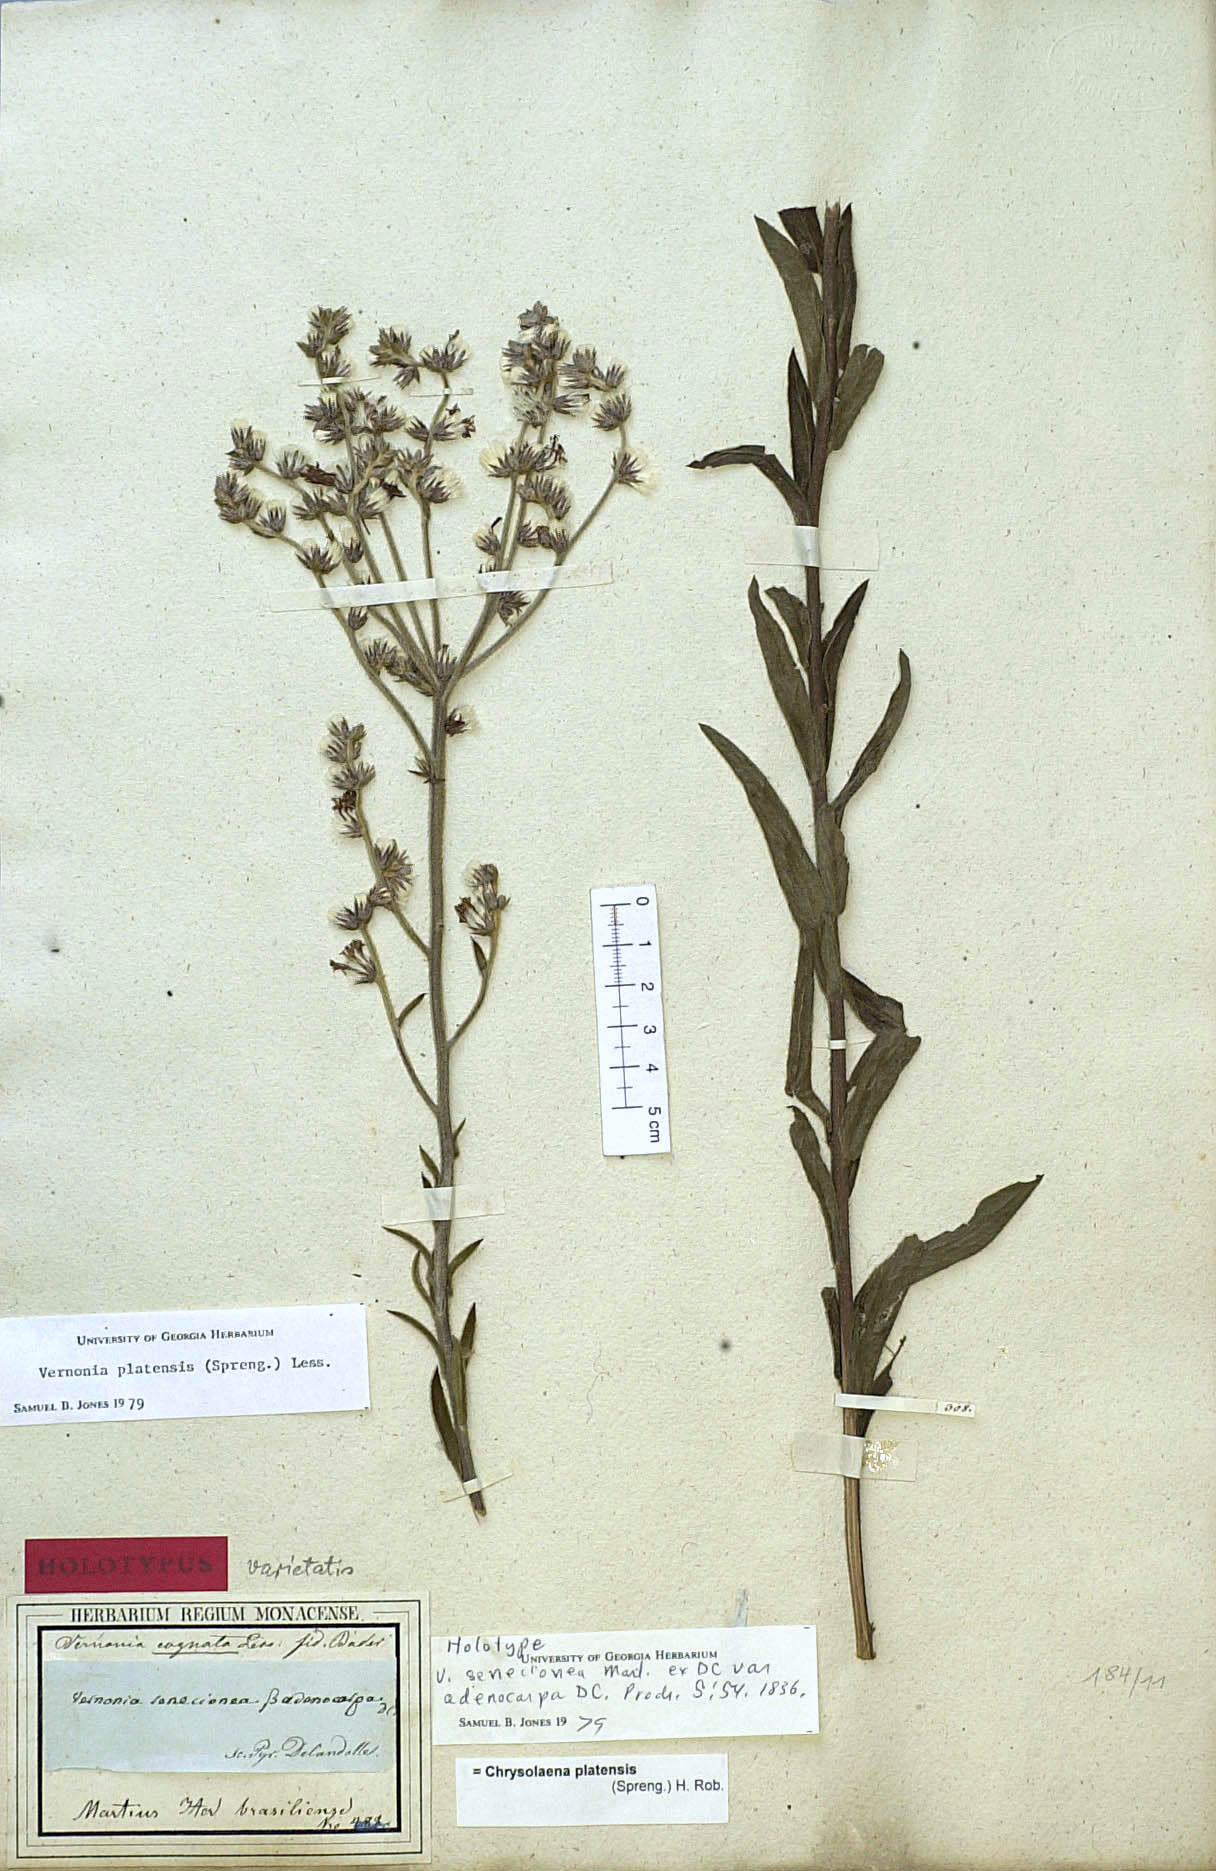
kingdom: Plantae
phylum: Tracheophyta
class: Magnoliopsida
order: Asterales
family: Asteraceae
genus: Chrysolaena
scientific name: Chrysolaena platensis
